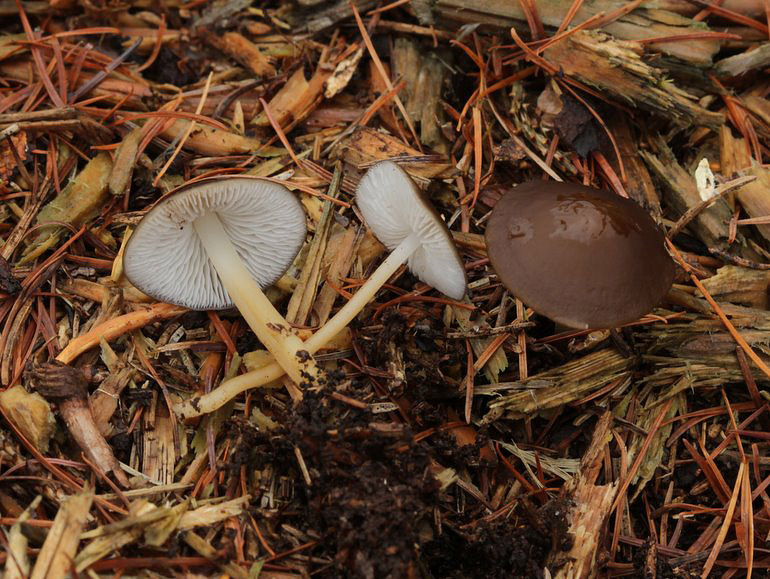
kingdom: Fungi
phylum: Basidiomycota
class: Agaricomycetes
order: Agaricales
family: Physalacriaceae
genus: Strobilurus
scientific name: Strobilurus stephanocystis
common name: fyrre-koglehat
